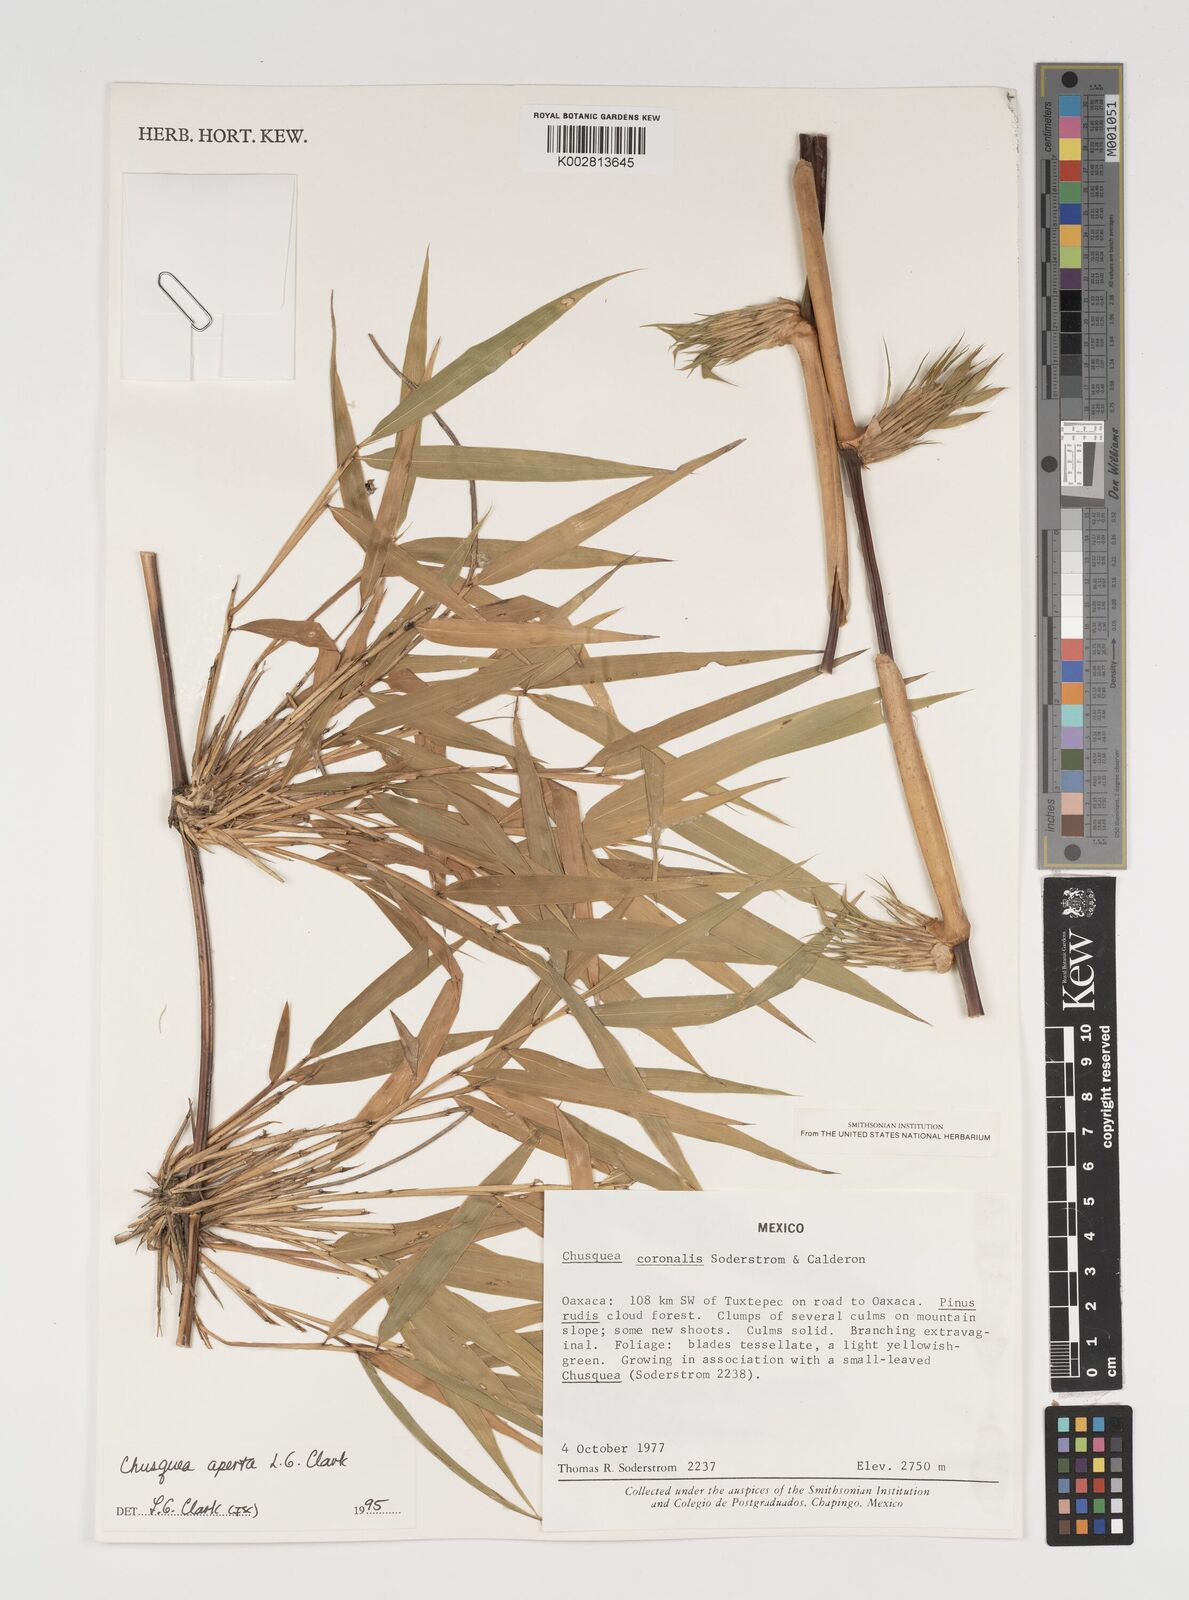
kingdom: Plantae
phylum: Tracheophyta
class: Liliopsida
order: Poales
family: Poaceae
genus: Chusquea
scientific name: Chusquea aperta
